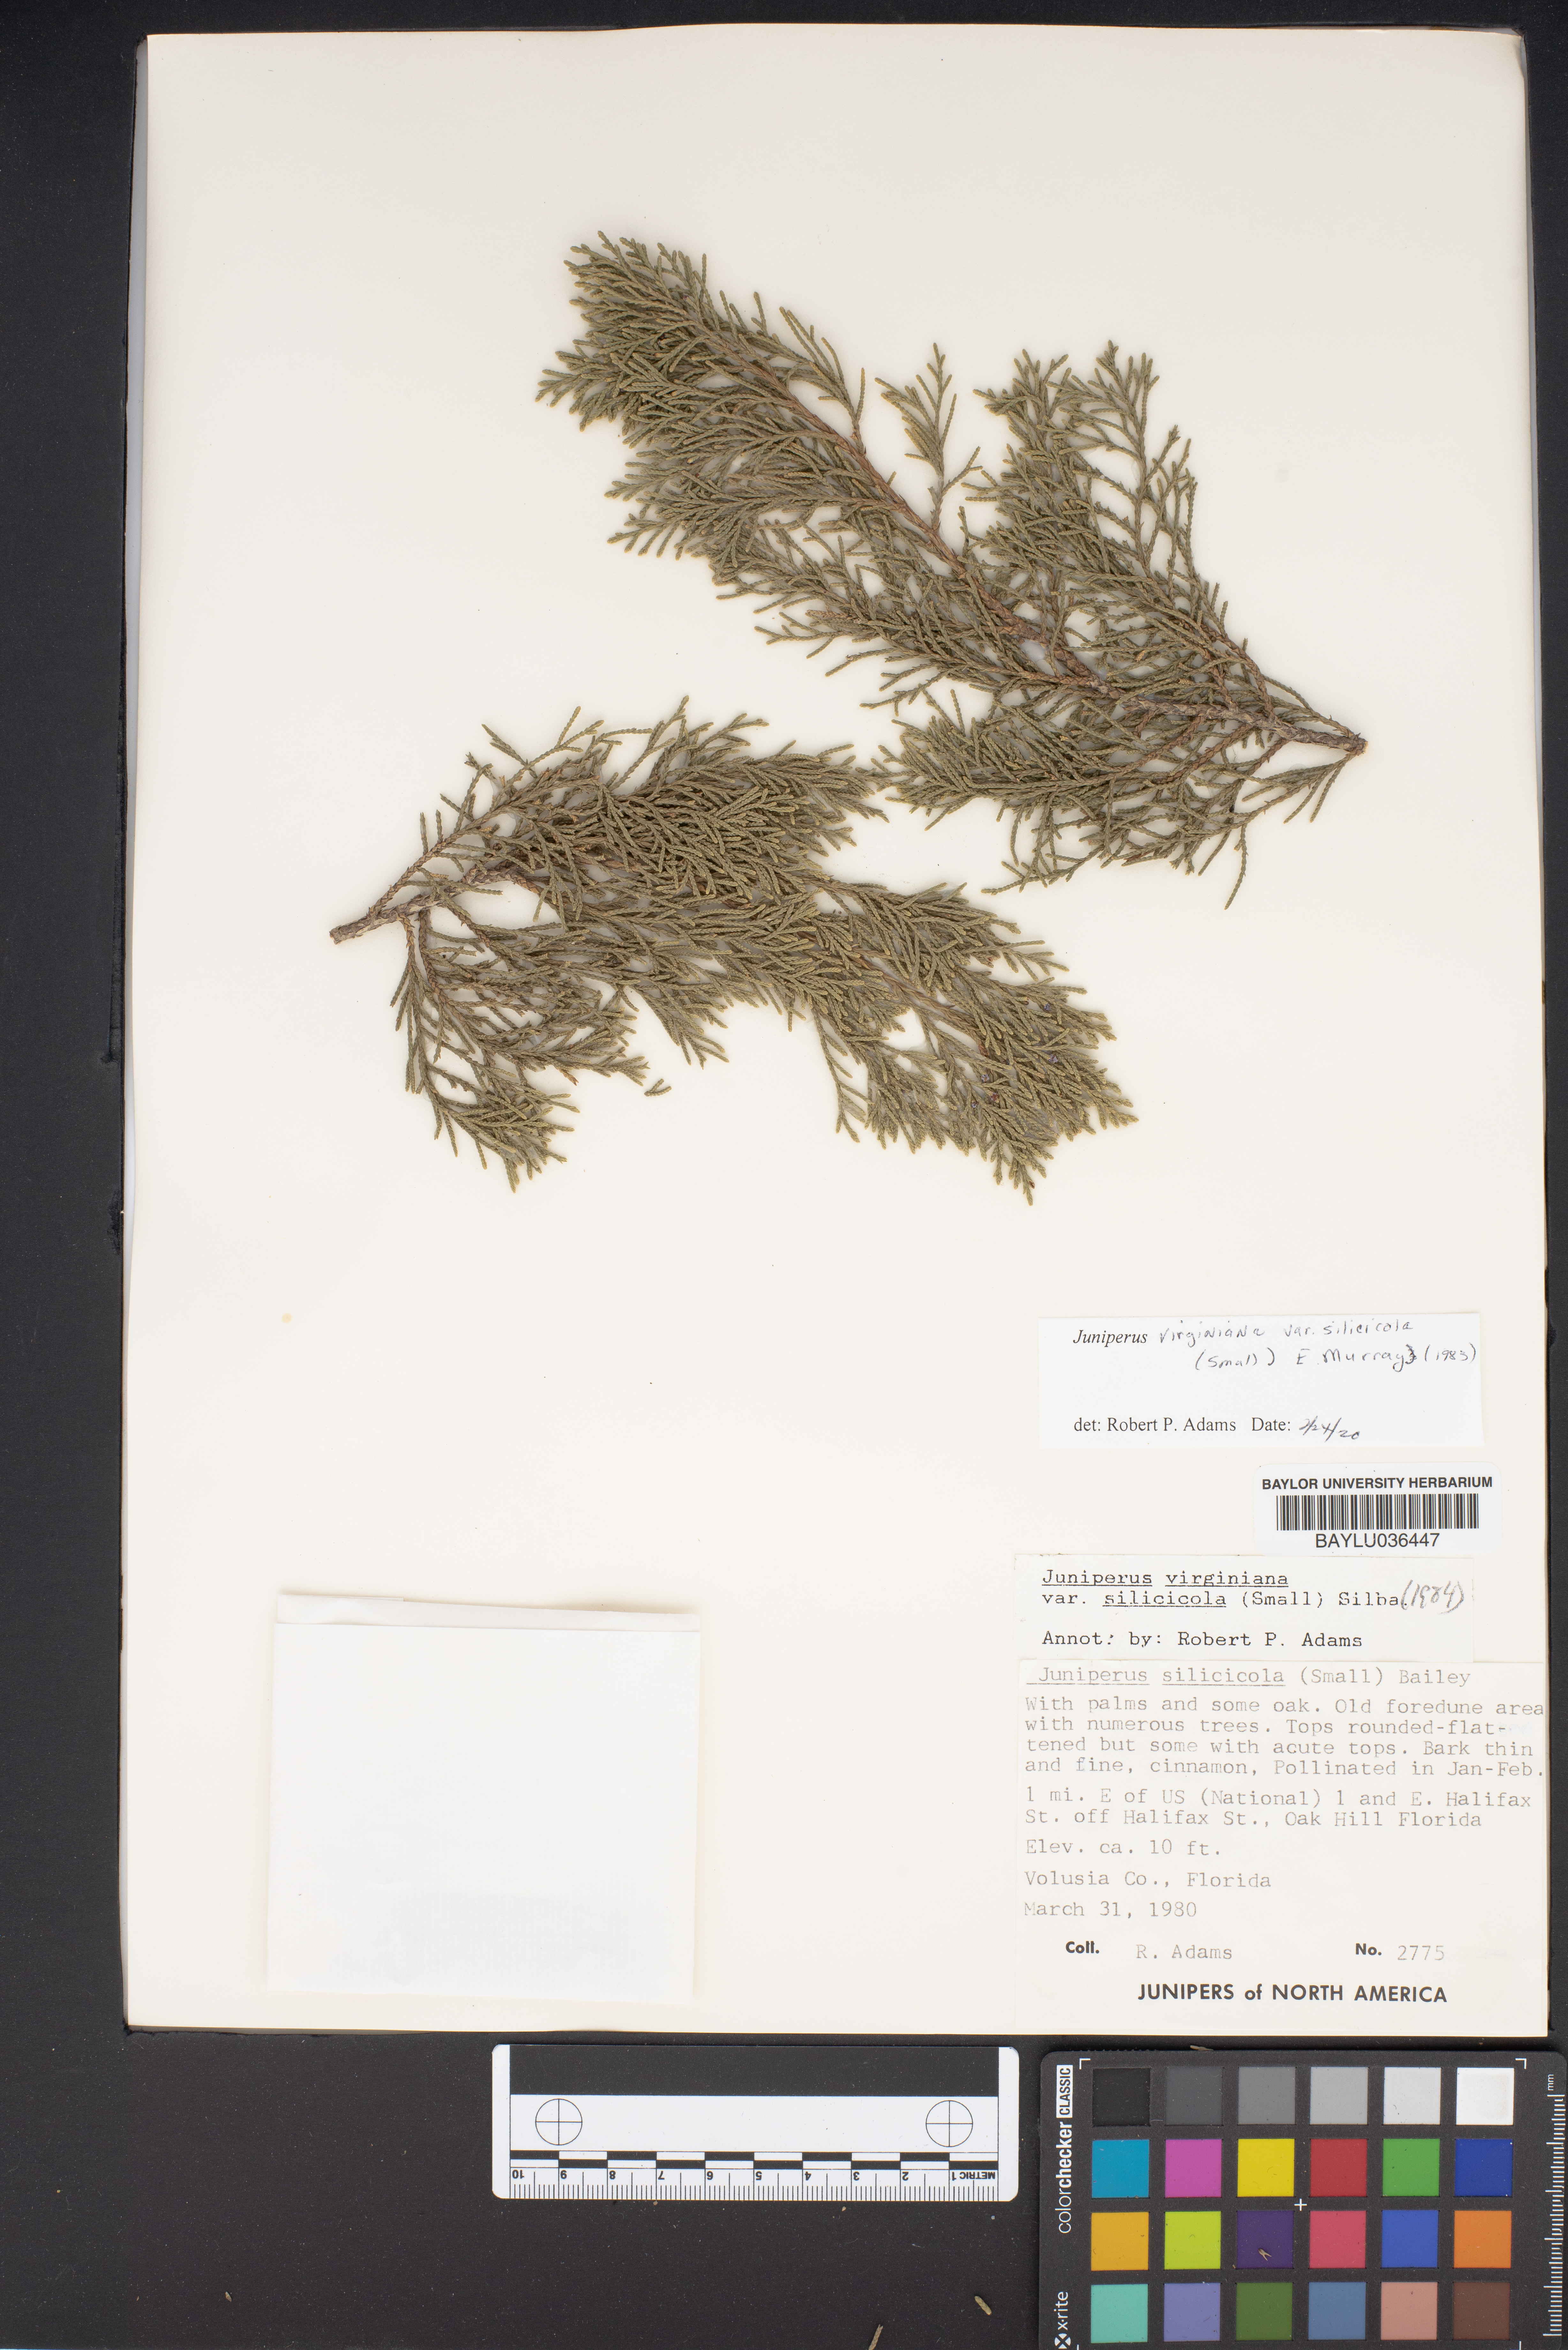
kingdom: Plantae
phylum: Tracheophyta
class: Pinopsida
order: Pinales
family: Cupressaceae
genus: Juniperus
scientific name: Juniperus virginiana
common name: Red juniper
